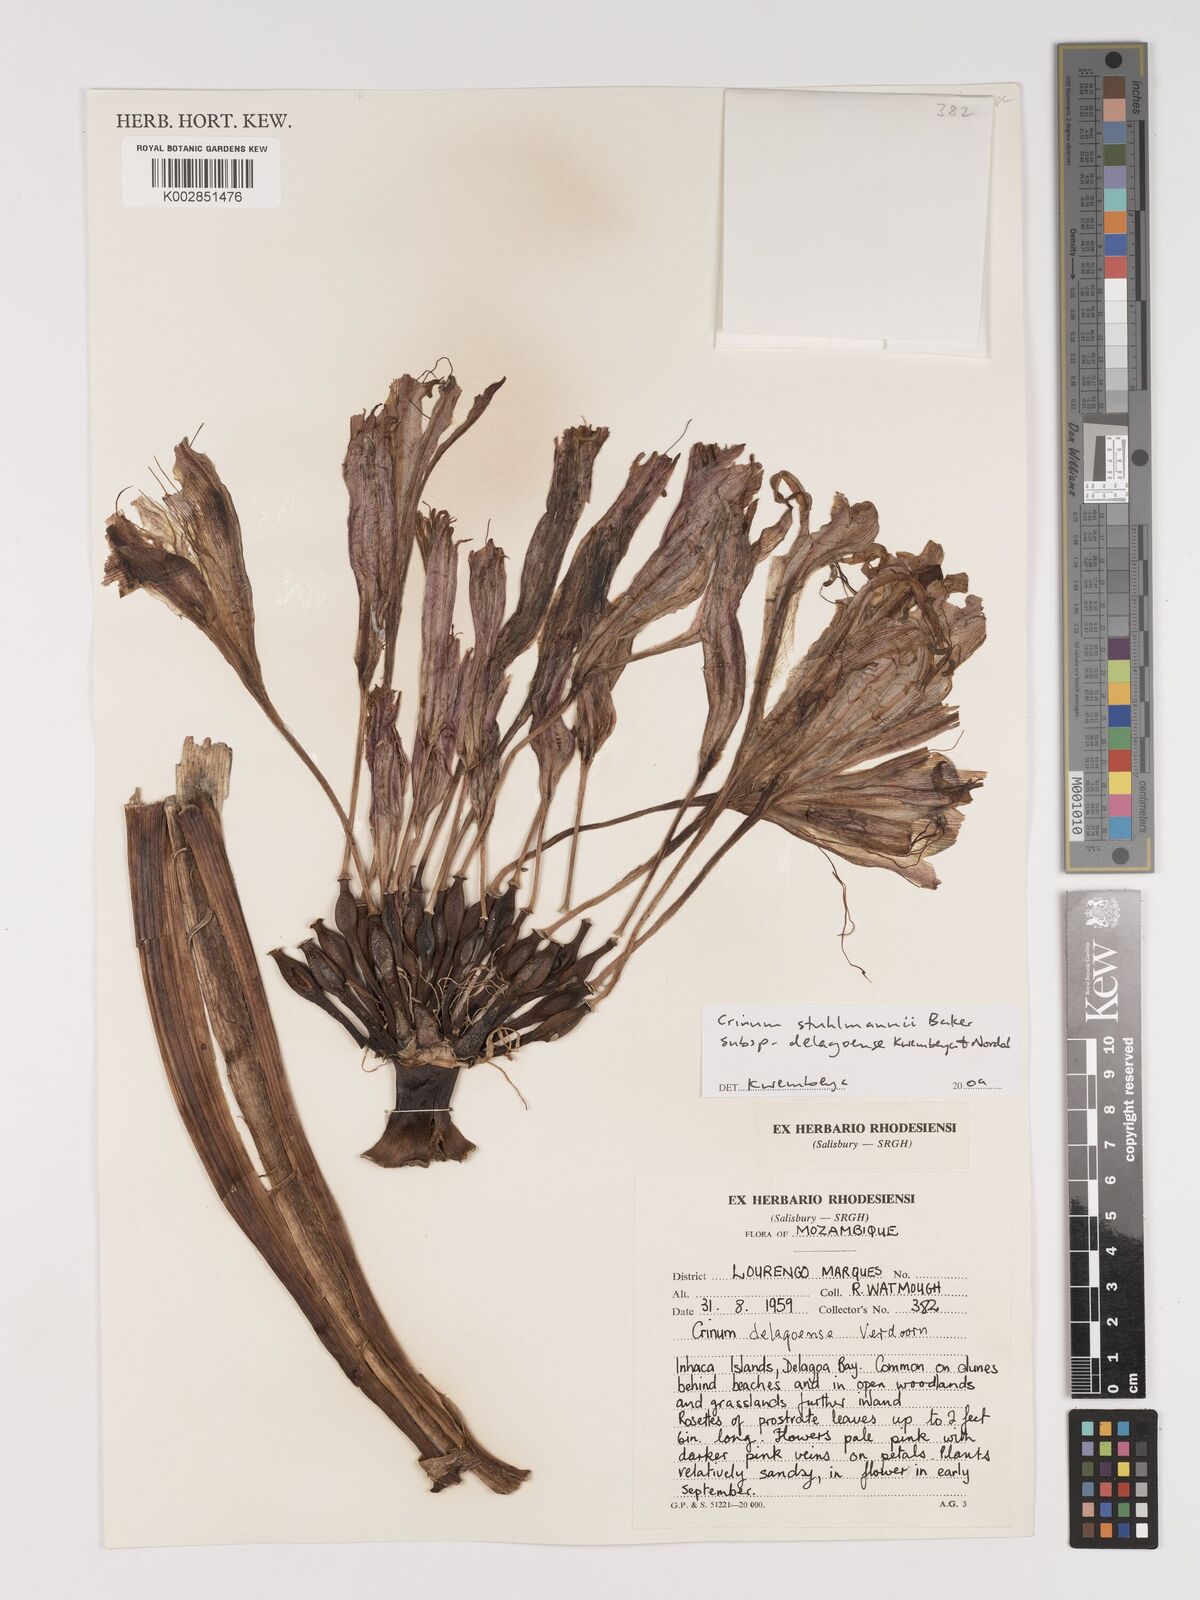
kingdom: Plantae
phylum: Tracheophyta
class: Liliopsida
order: Asparagales
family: Amaryllidaceae
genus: Crinum
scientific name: Crinum stuhlmannii
